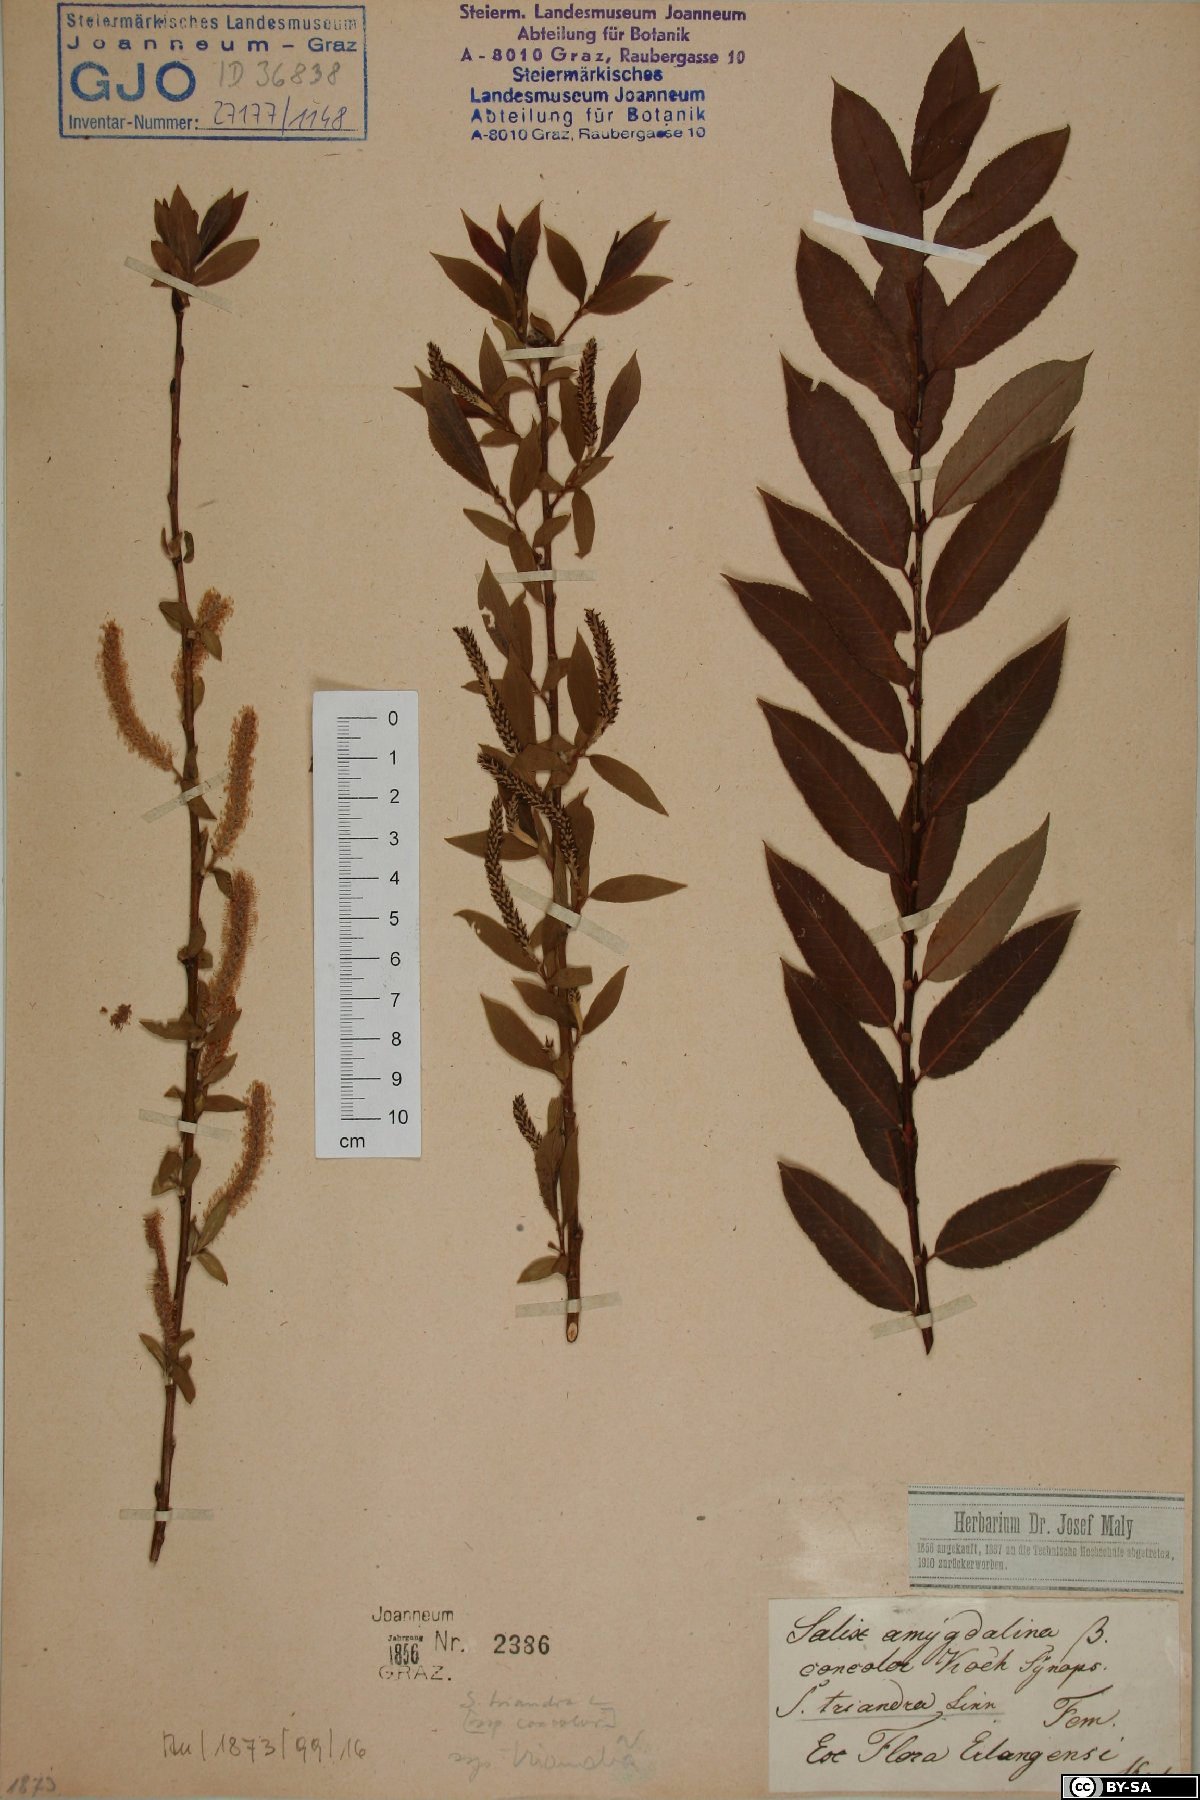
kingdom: Plantae
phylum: Tracheophyta
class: Magnoliopsida
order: Malpighiales
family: Salicaceae
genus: Salix
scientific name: Salix triandra
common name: Almond willow
